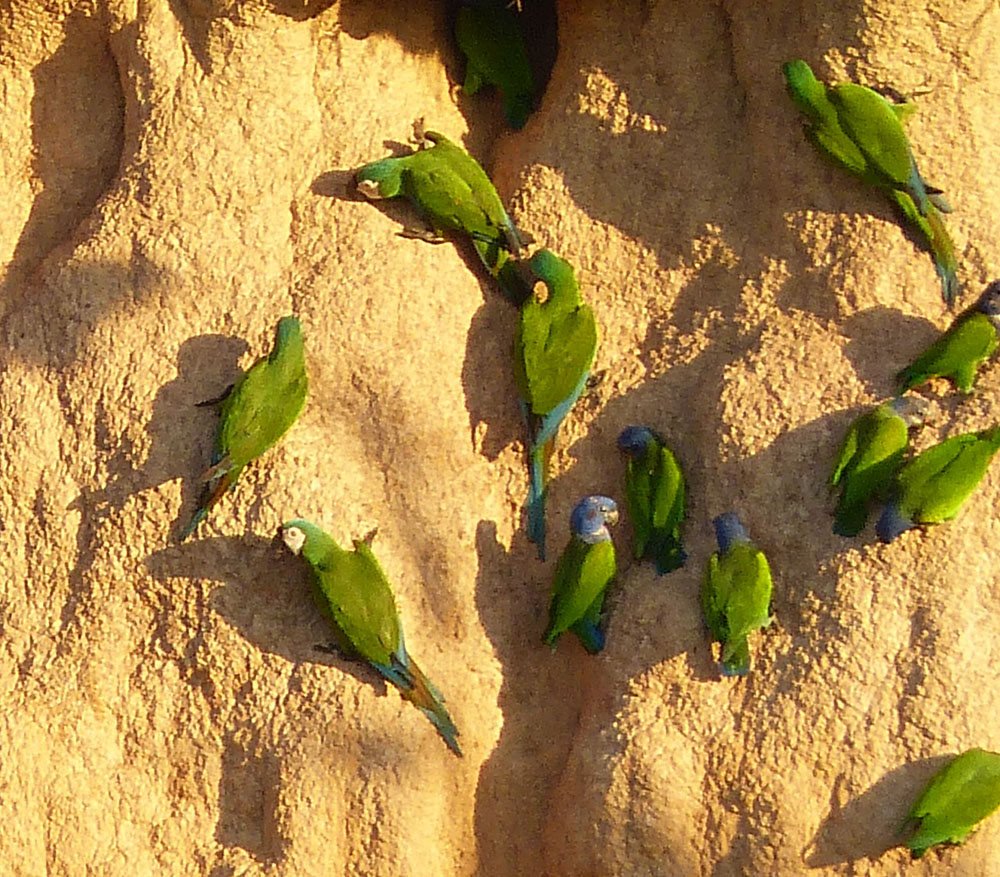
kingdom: Animalia
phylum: Chordata
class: Aves
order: Psittaciformes
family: Psittacidae
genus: Orthopsittaca
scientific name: Orthopsittaca manilata
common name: Red-bellied macaw
